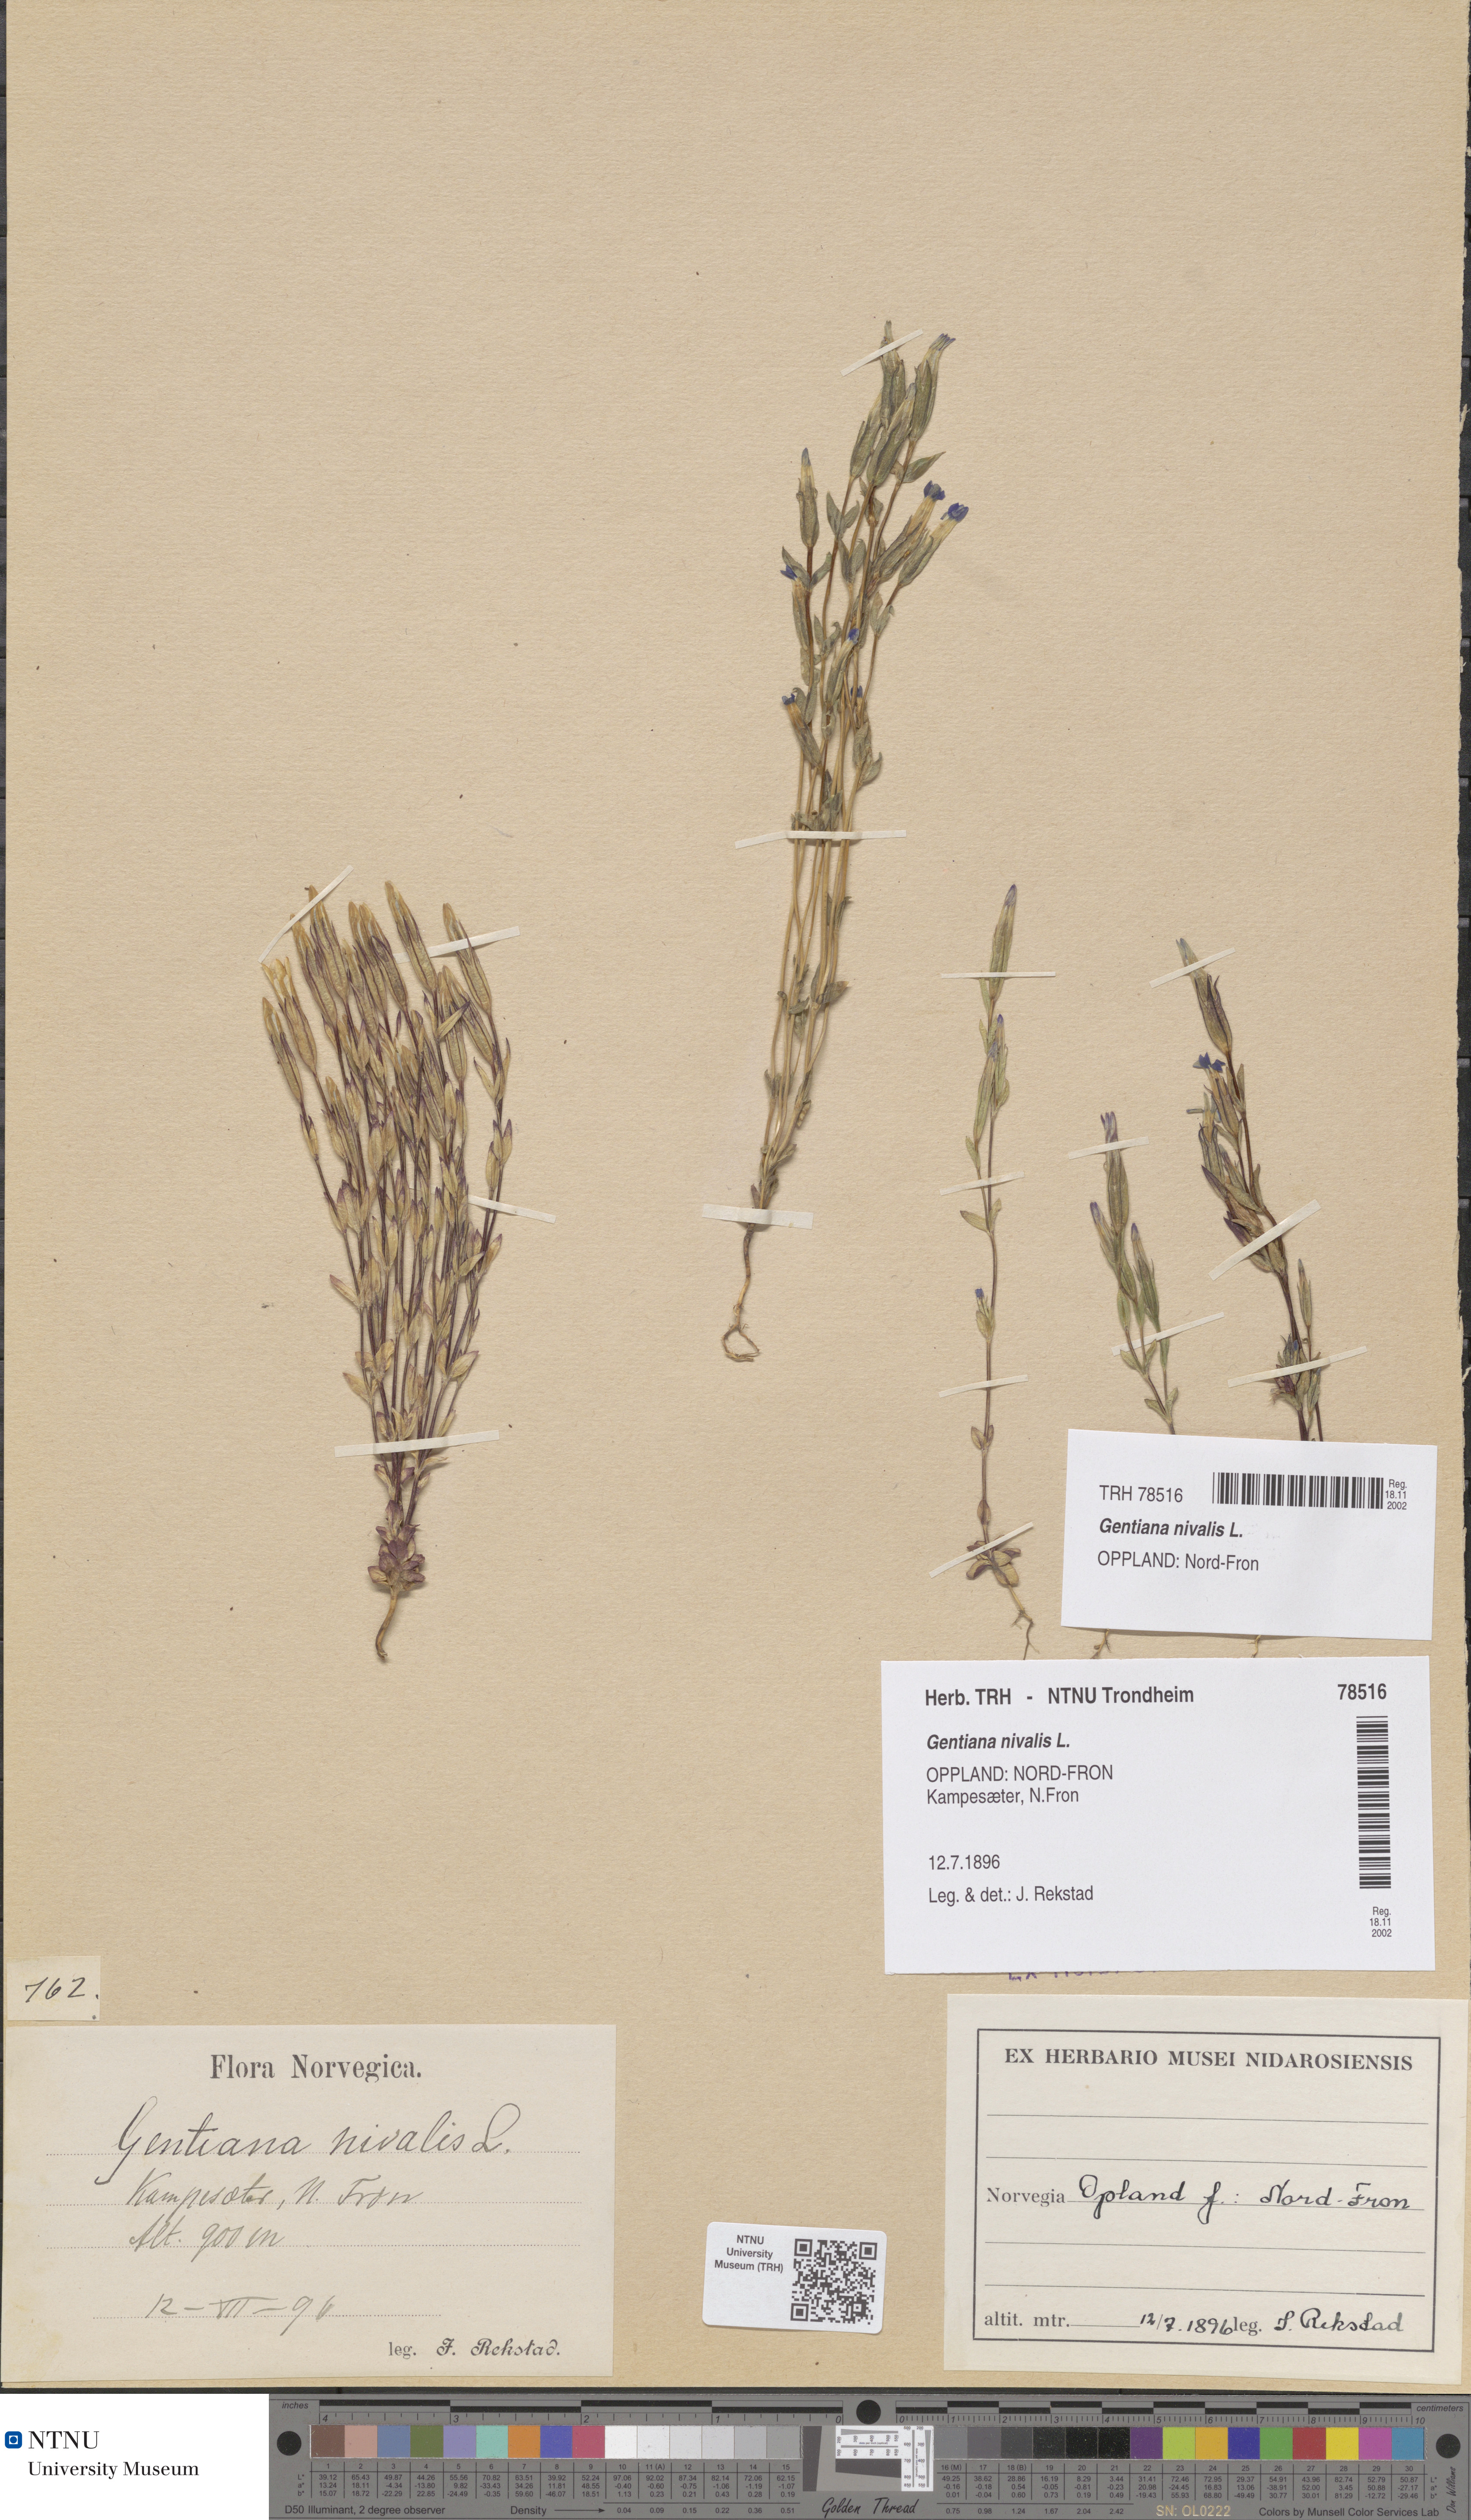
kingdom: Plantae
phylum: Tracheophyta
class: Magnoliopsida
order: Gentianales
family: Gentianaceae
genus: Gentiana
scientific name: Gentiana nivalis
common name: Alpine gentian
